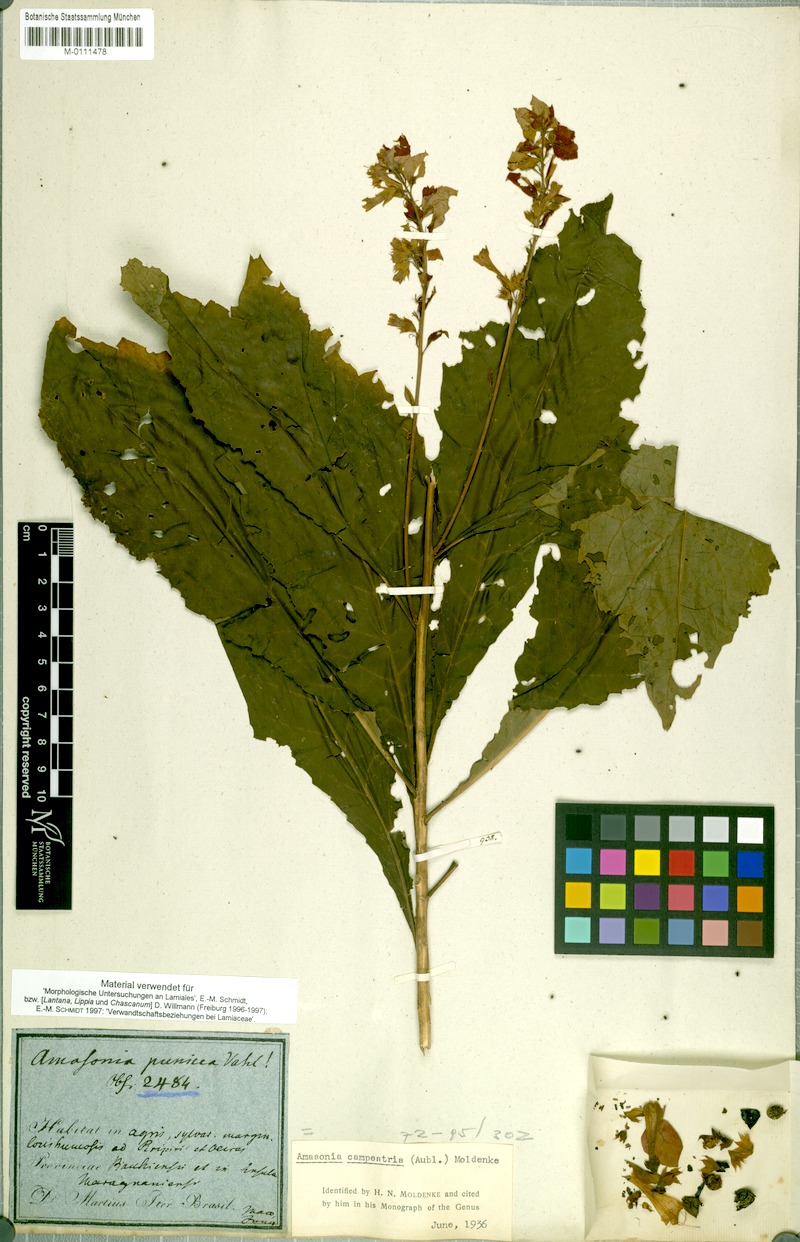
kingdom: Plantae
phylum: Tracheophyta
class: Magnoliopsida
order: Lamiales
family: Lamiaceae
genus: Amasonia
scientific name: Amasonia campestris
